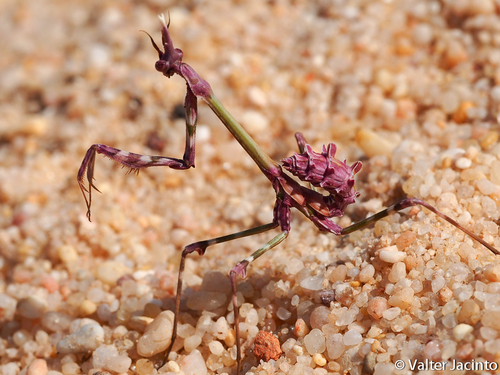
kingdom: Animalia
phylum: Arthropoda
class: Insecta
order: Mantodea
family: Empusidae
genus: Empusa
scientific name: Empusa pennata
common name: Conehead mantis
